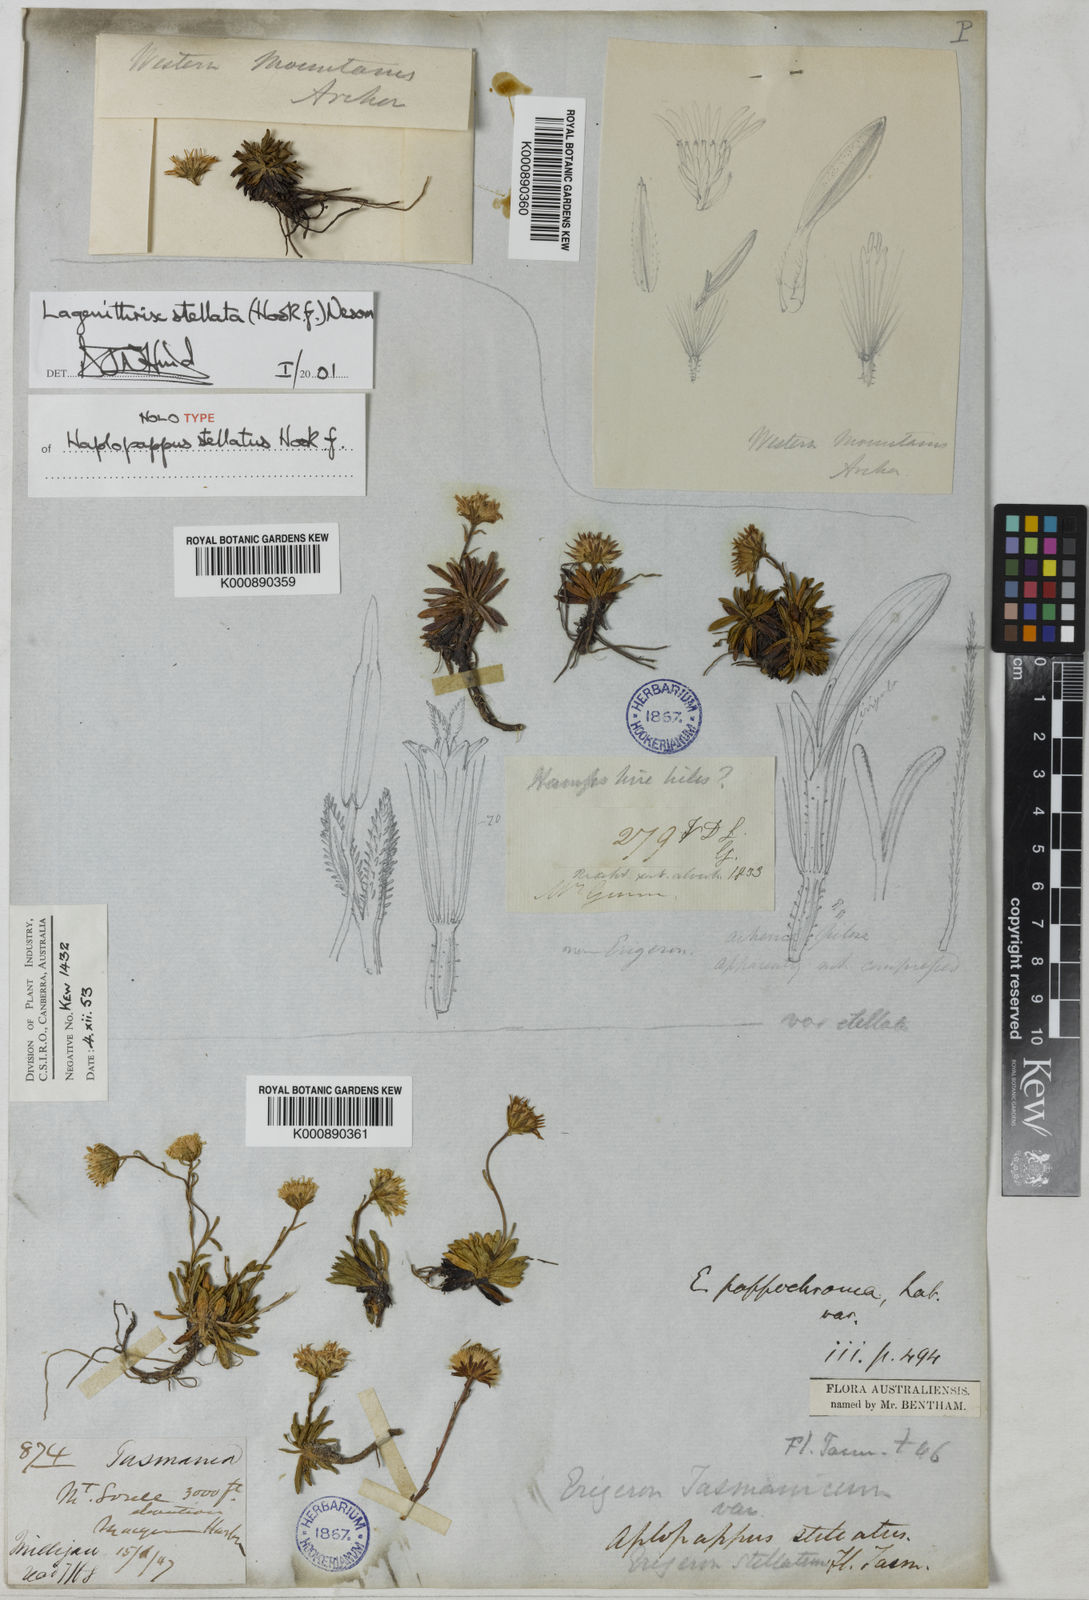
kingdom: Plantae
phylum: Tracheophyta
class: Magnoliopsida
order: Asterales
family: Asteraceae
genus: Pappochroma
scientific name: Pappochroma stellatum
